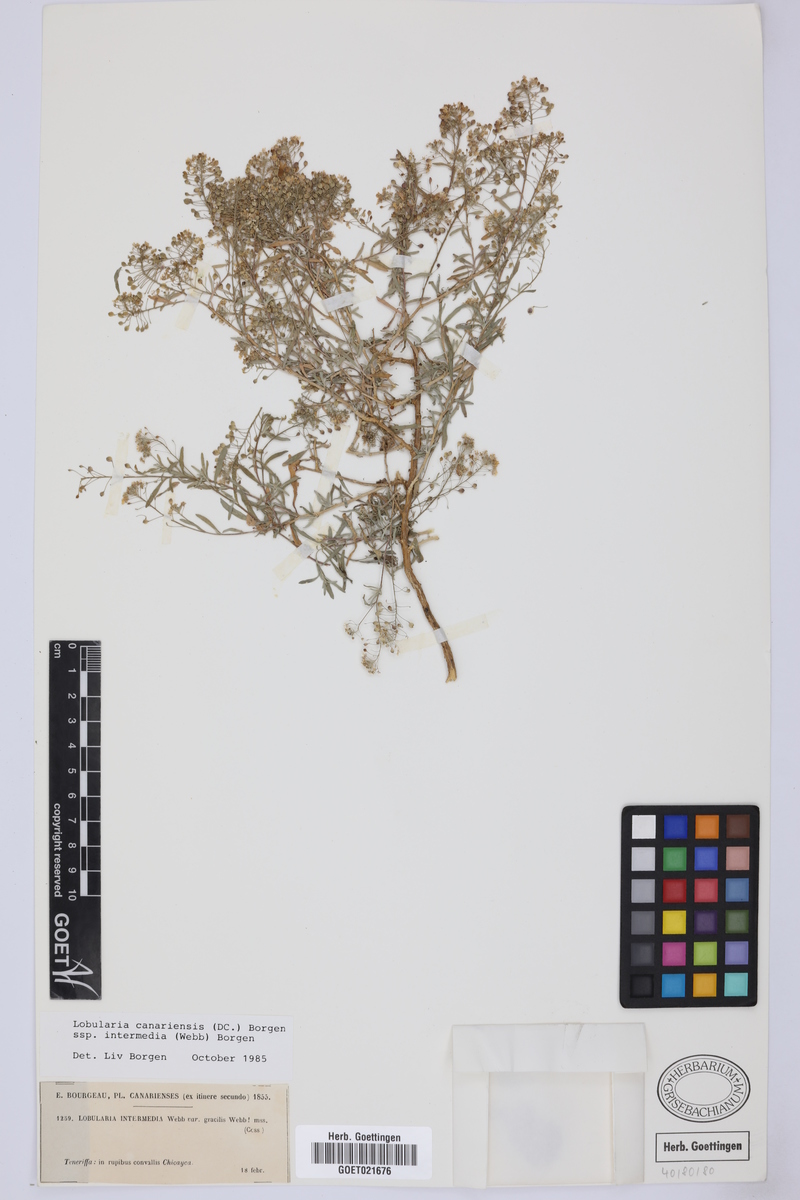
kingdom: Plantae
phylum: Tracheophyta
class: Magnoliopsida
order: Brassicales
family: Brassicaceae
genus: Lobularia
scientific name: Lobularia canariensis
